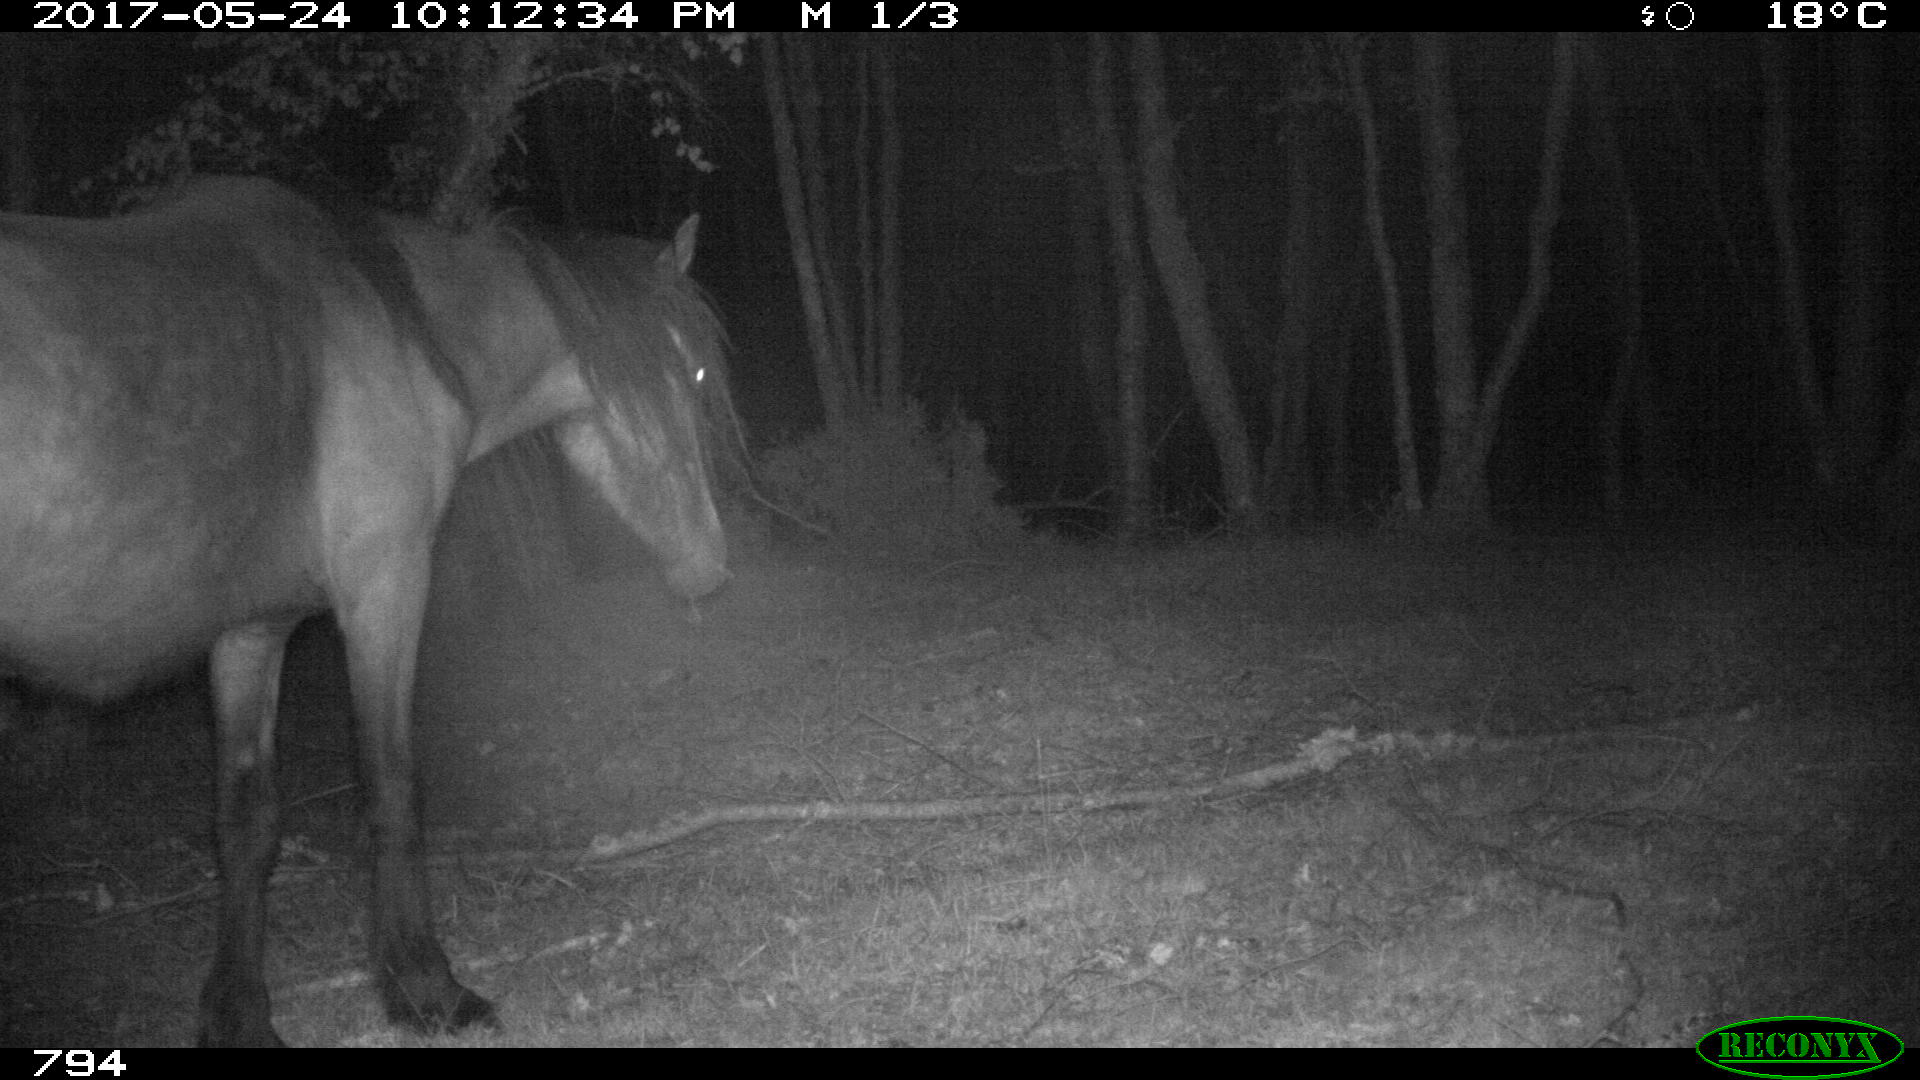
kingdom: Animalia
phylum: Chordata
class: Mammalia
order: Perissodactyla
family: Equidae
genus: Equus
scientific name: Equus caballus
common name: Horse
